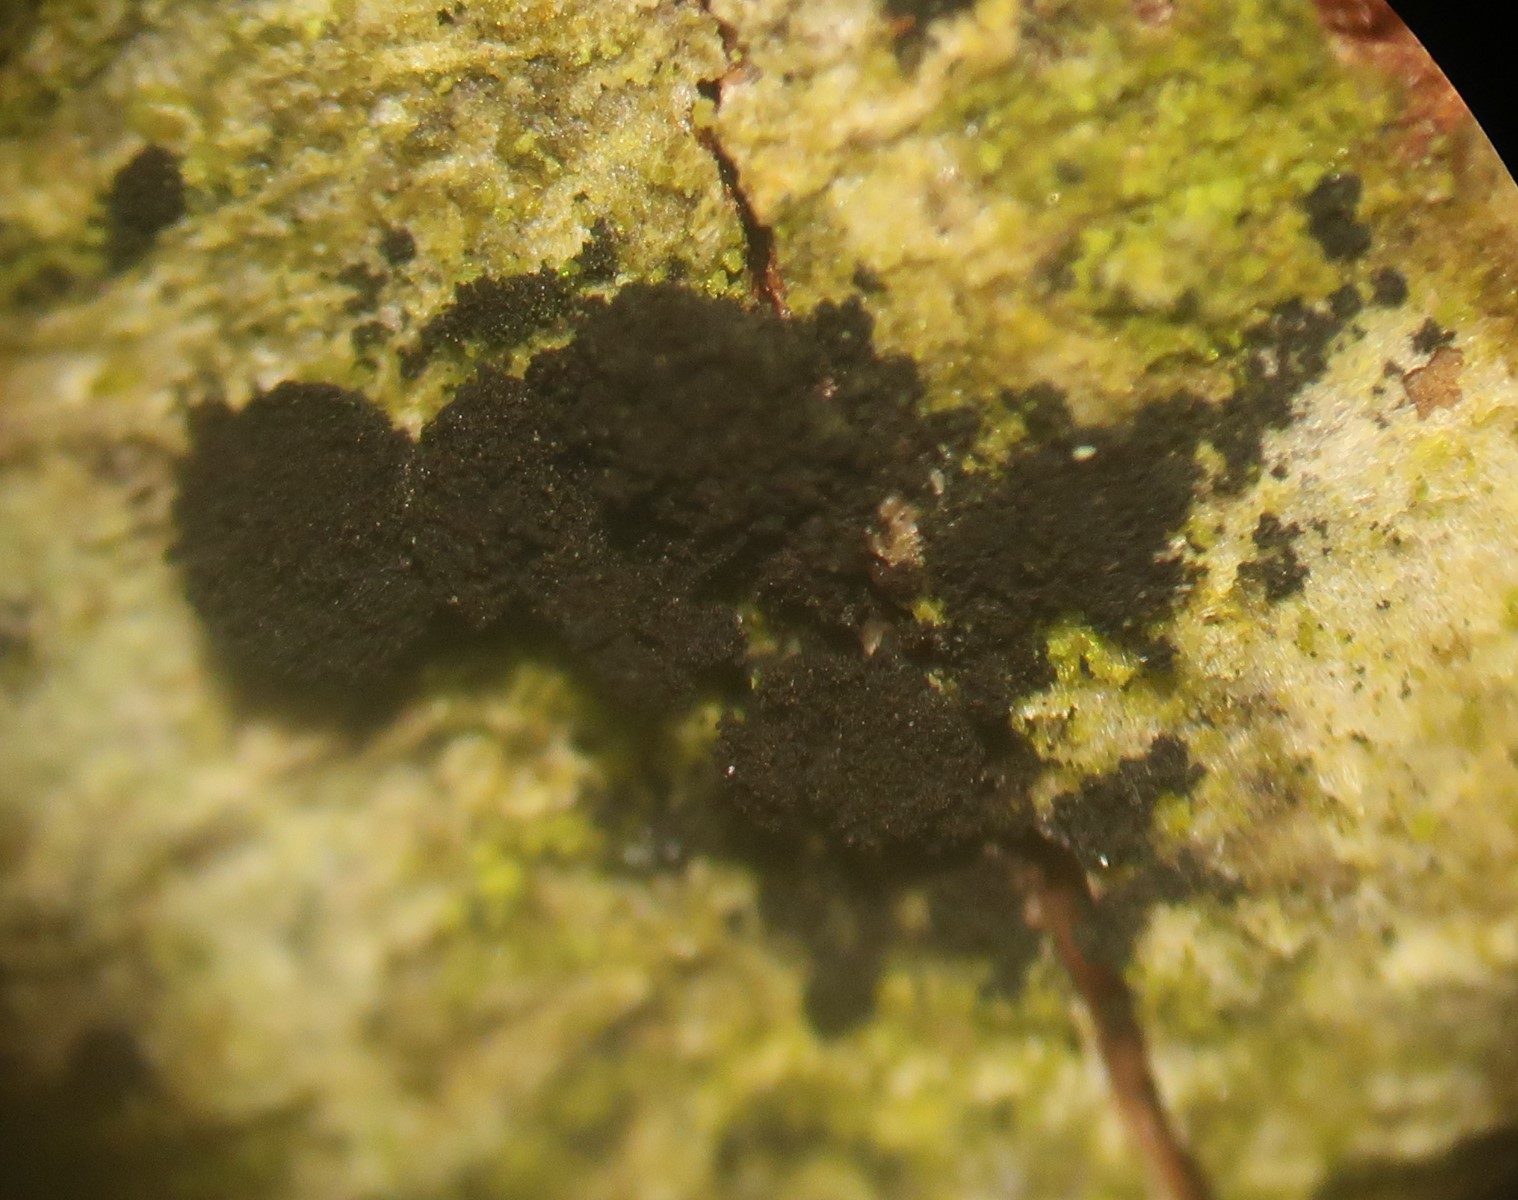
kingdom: Fungi
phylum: Ascomycota
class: Leotiomycetes
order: Helotiales
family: Mollisiaceae
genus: Trimmatostroma
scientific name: Trimmatostroma betulinum
